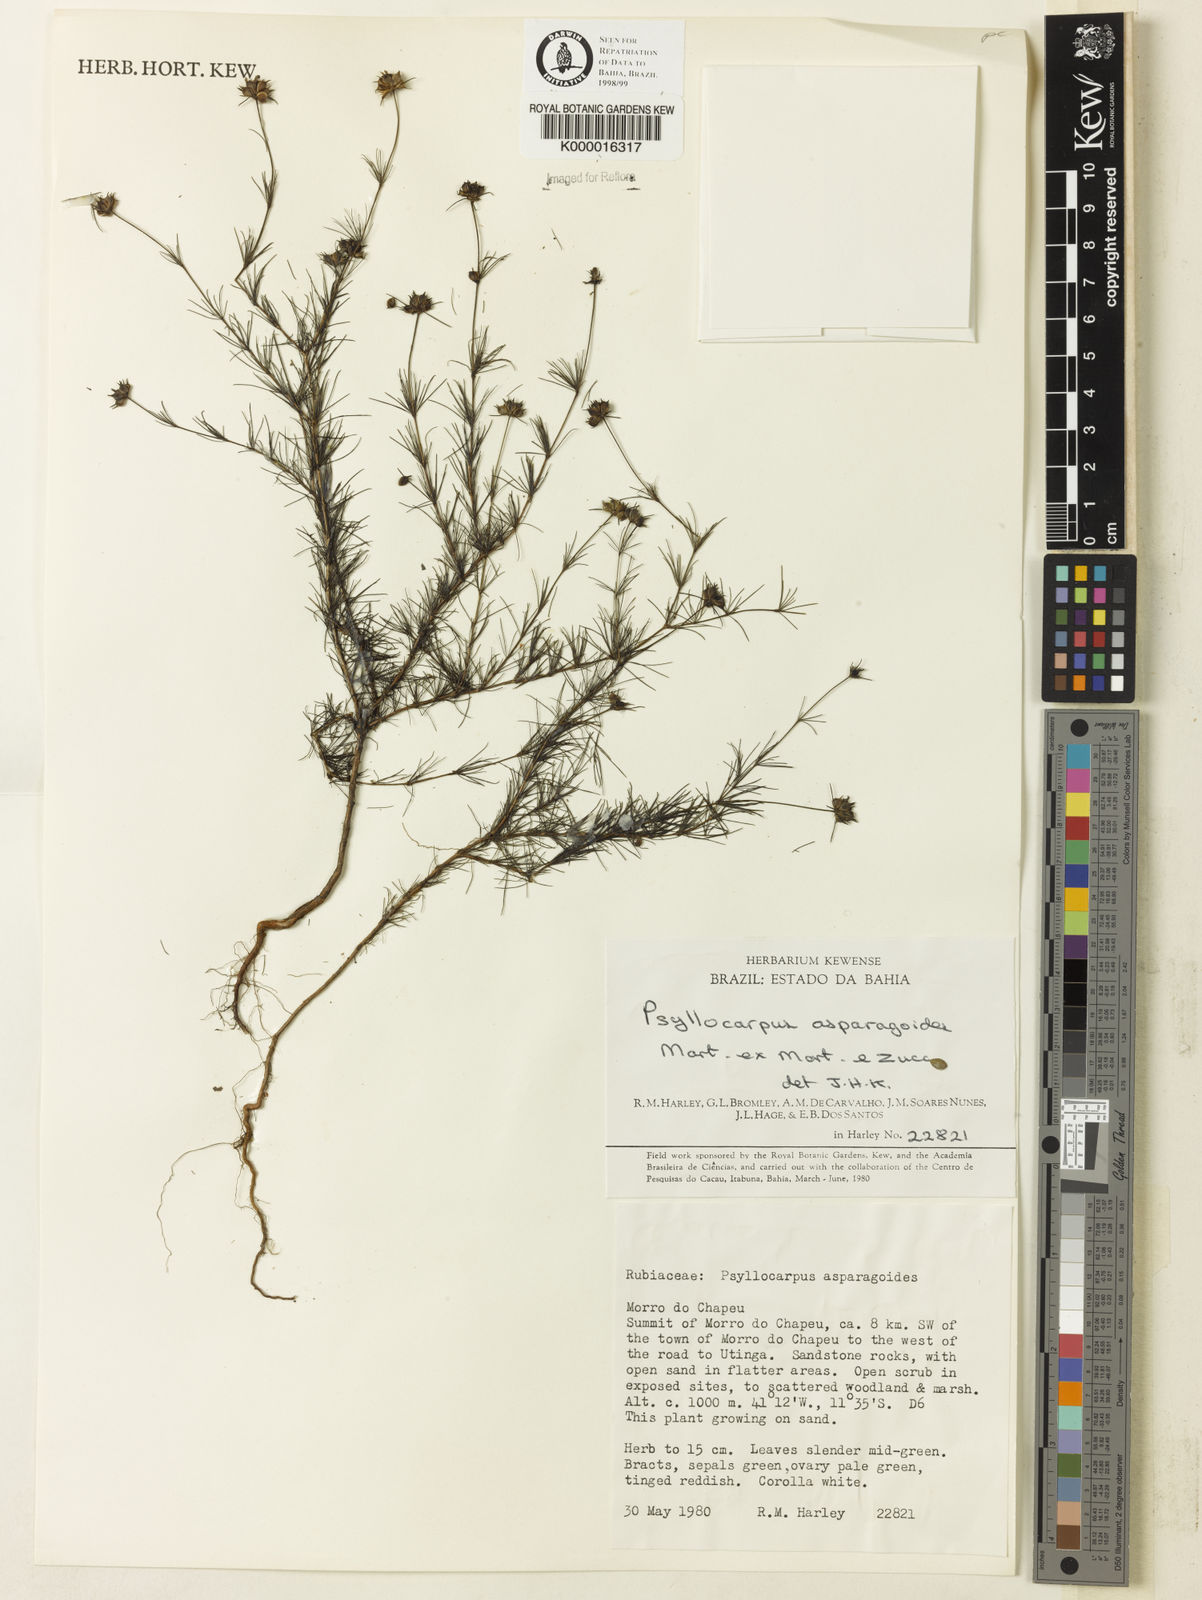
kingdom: Plantae
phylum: Tracheophyta
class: Magnoliopsida
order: Gentianales
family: Rubiaceae
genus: Psyllocarpus
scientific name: Psyllocarpus asparagoides
